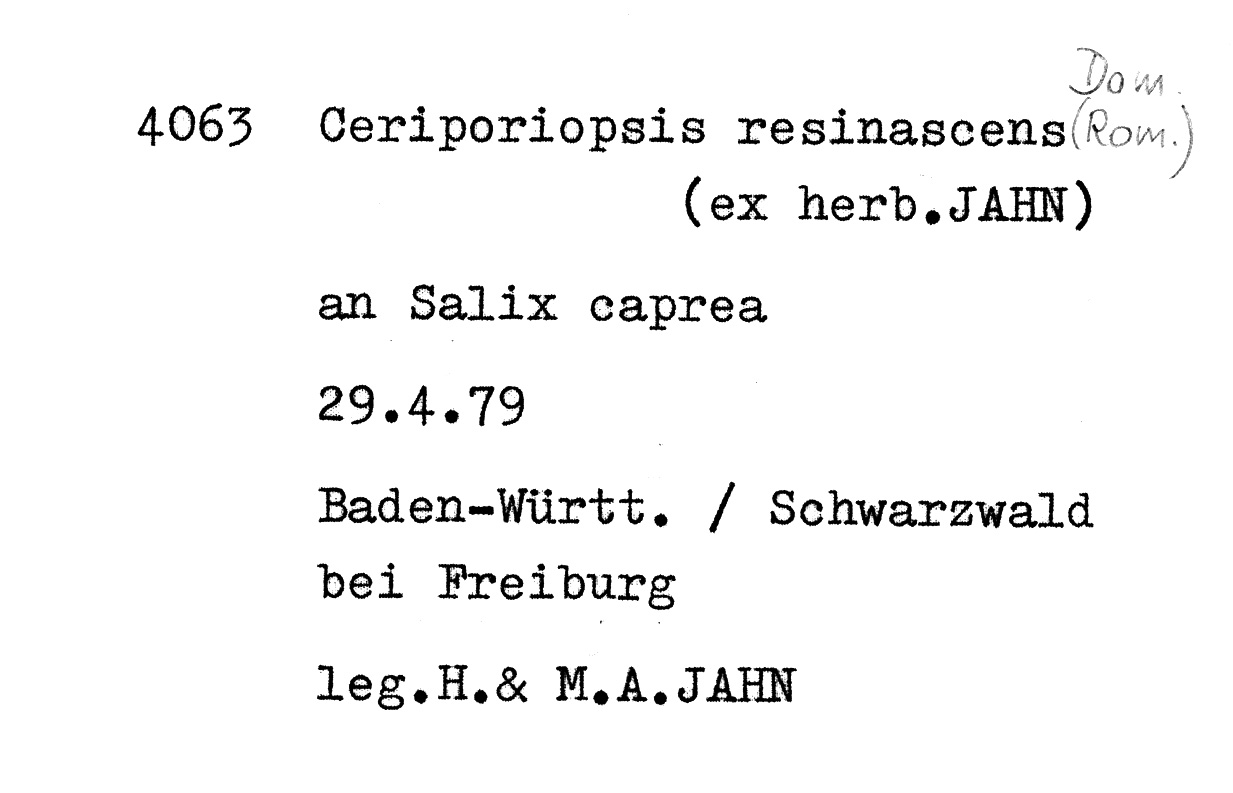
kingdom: Plantae
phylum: Tracheophyta
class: Magnoliopsida
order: Malpighiales
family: Salicaceae
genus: Salix
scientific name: Salix caprea
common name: Goat willow
